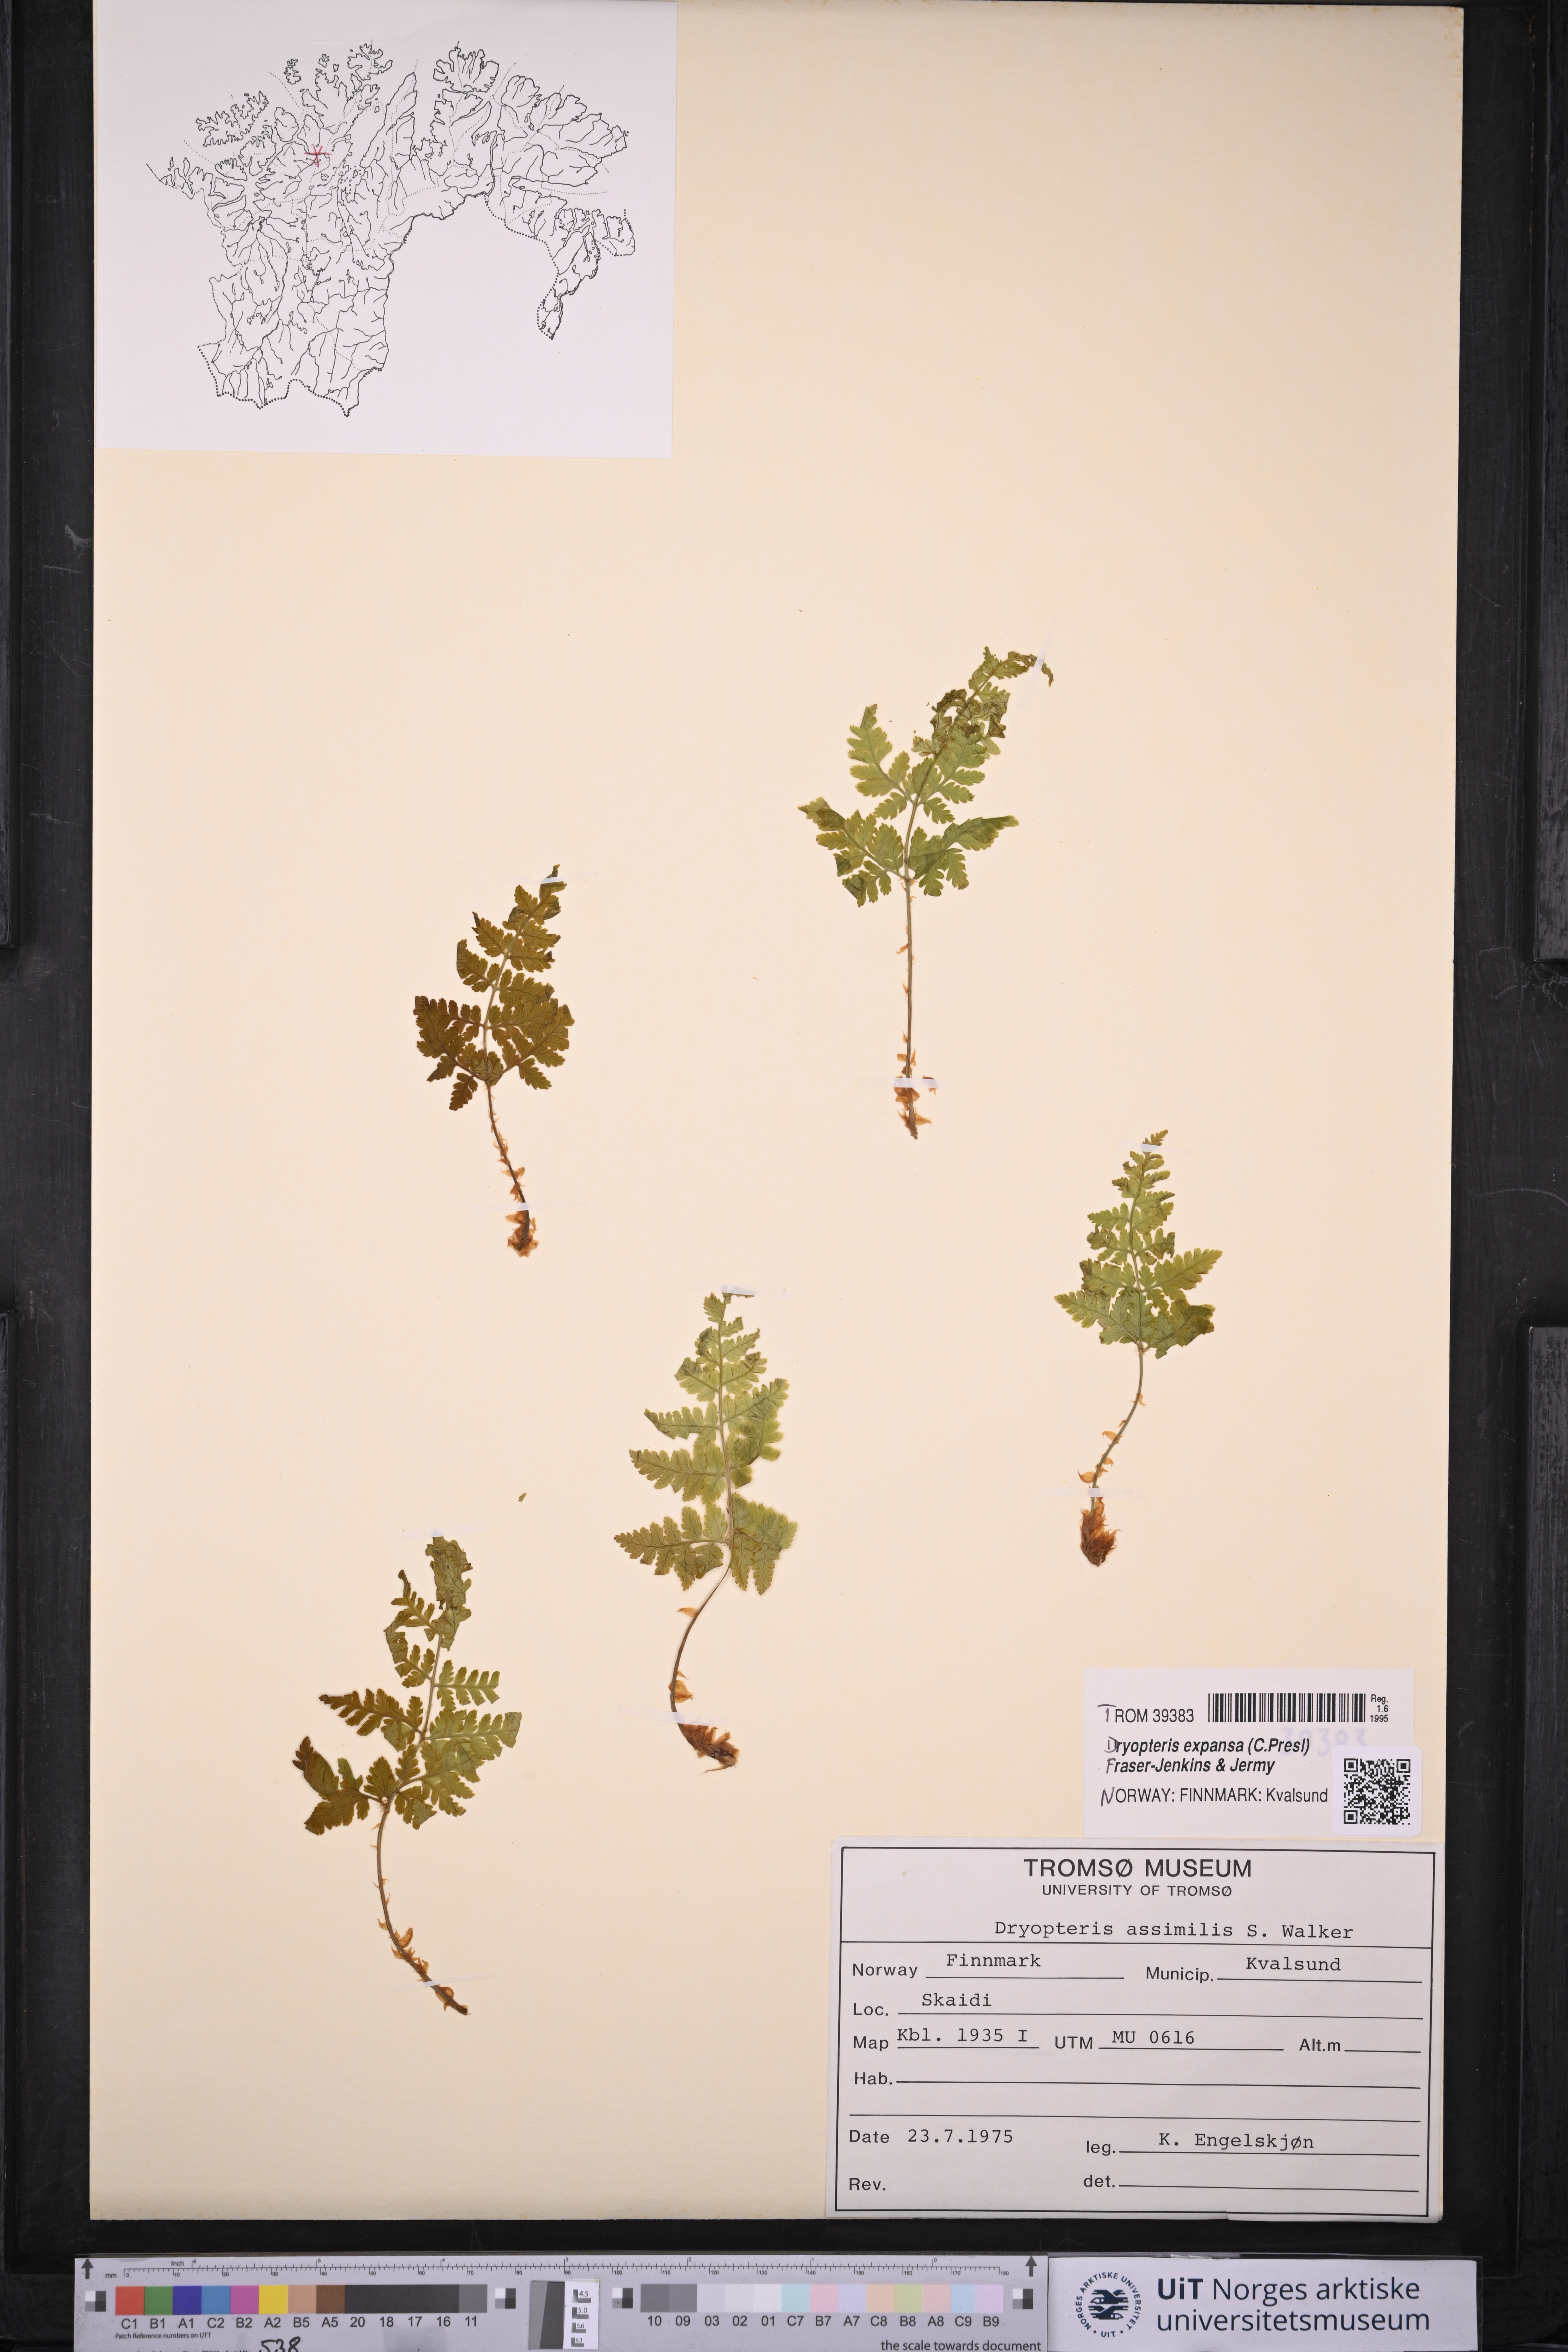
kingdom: Plantae
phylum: Tracheophyta
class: Polypodiopsida
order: Polypodiales
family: Dryopteridaceae
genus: Dryopteris
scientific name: Dryopteris expansa
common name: Northern buckler fern
